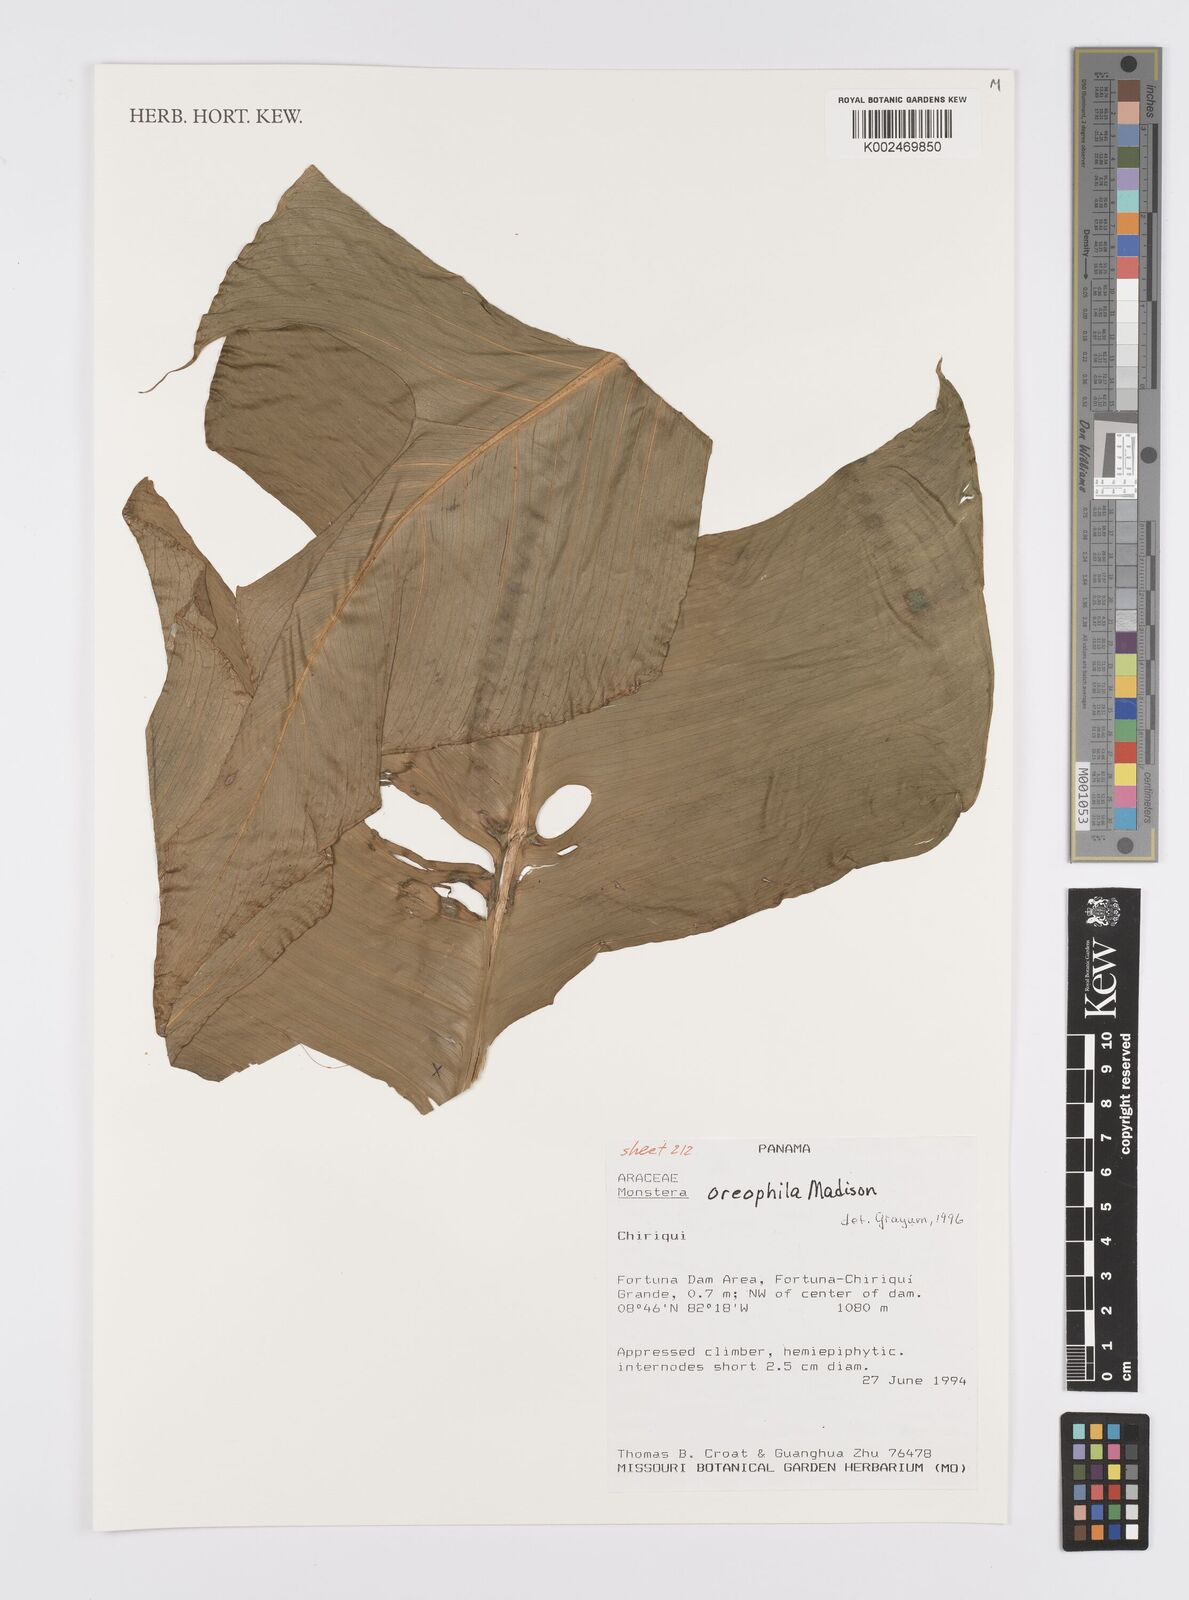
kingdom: Plantae
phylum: Tracheophyta
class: Liliopsida
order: Alismatales
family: Araceae
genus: Monstera
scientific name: Monstera oreophila
